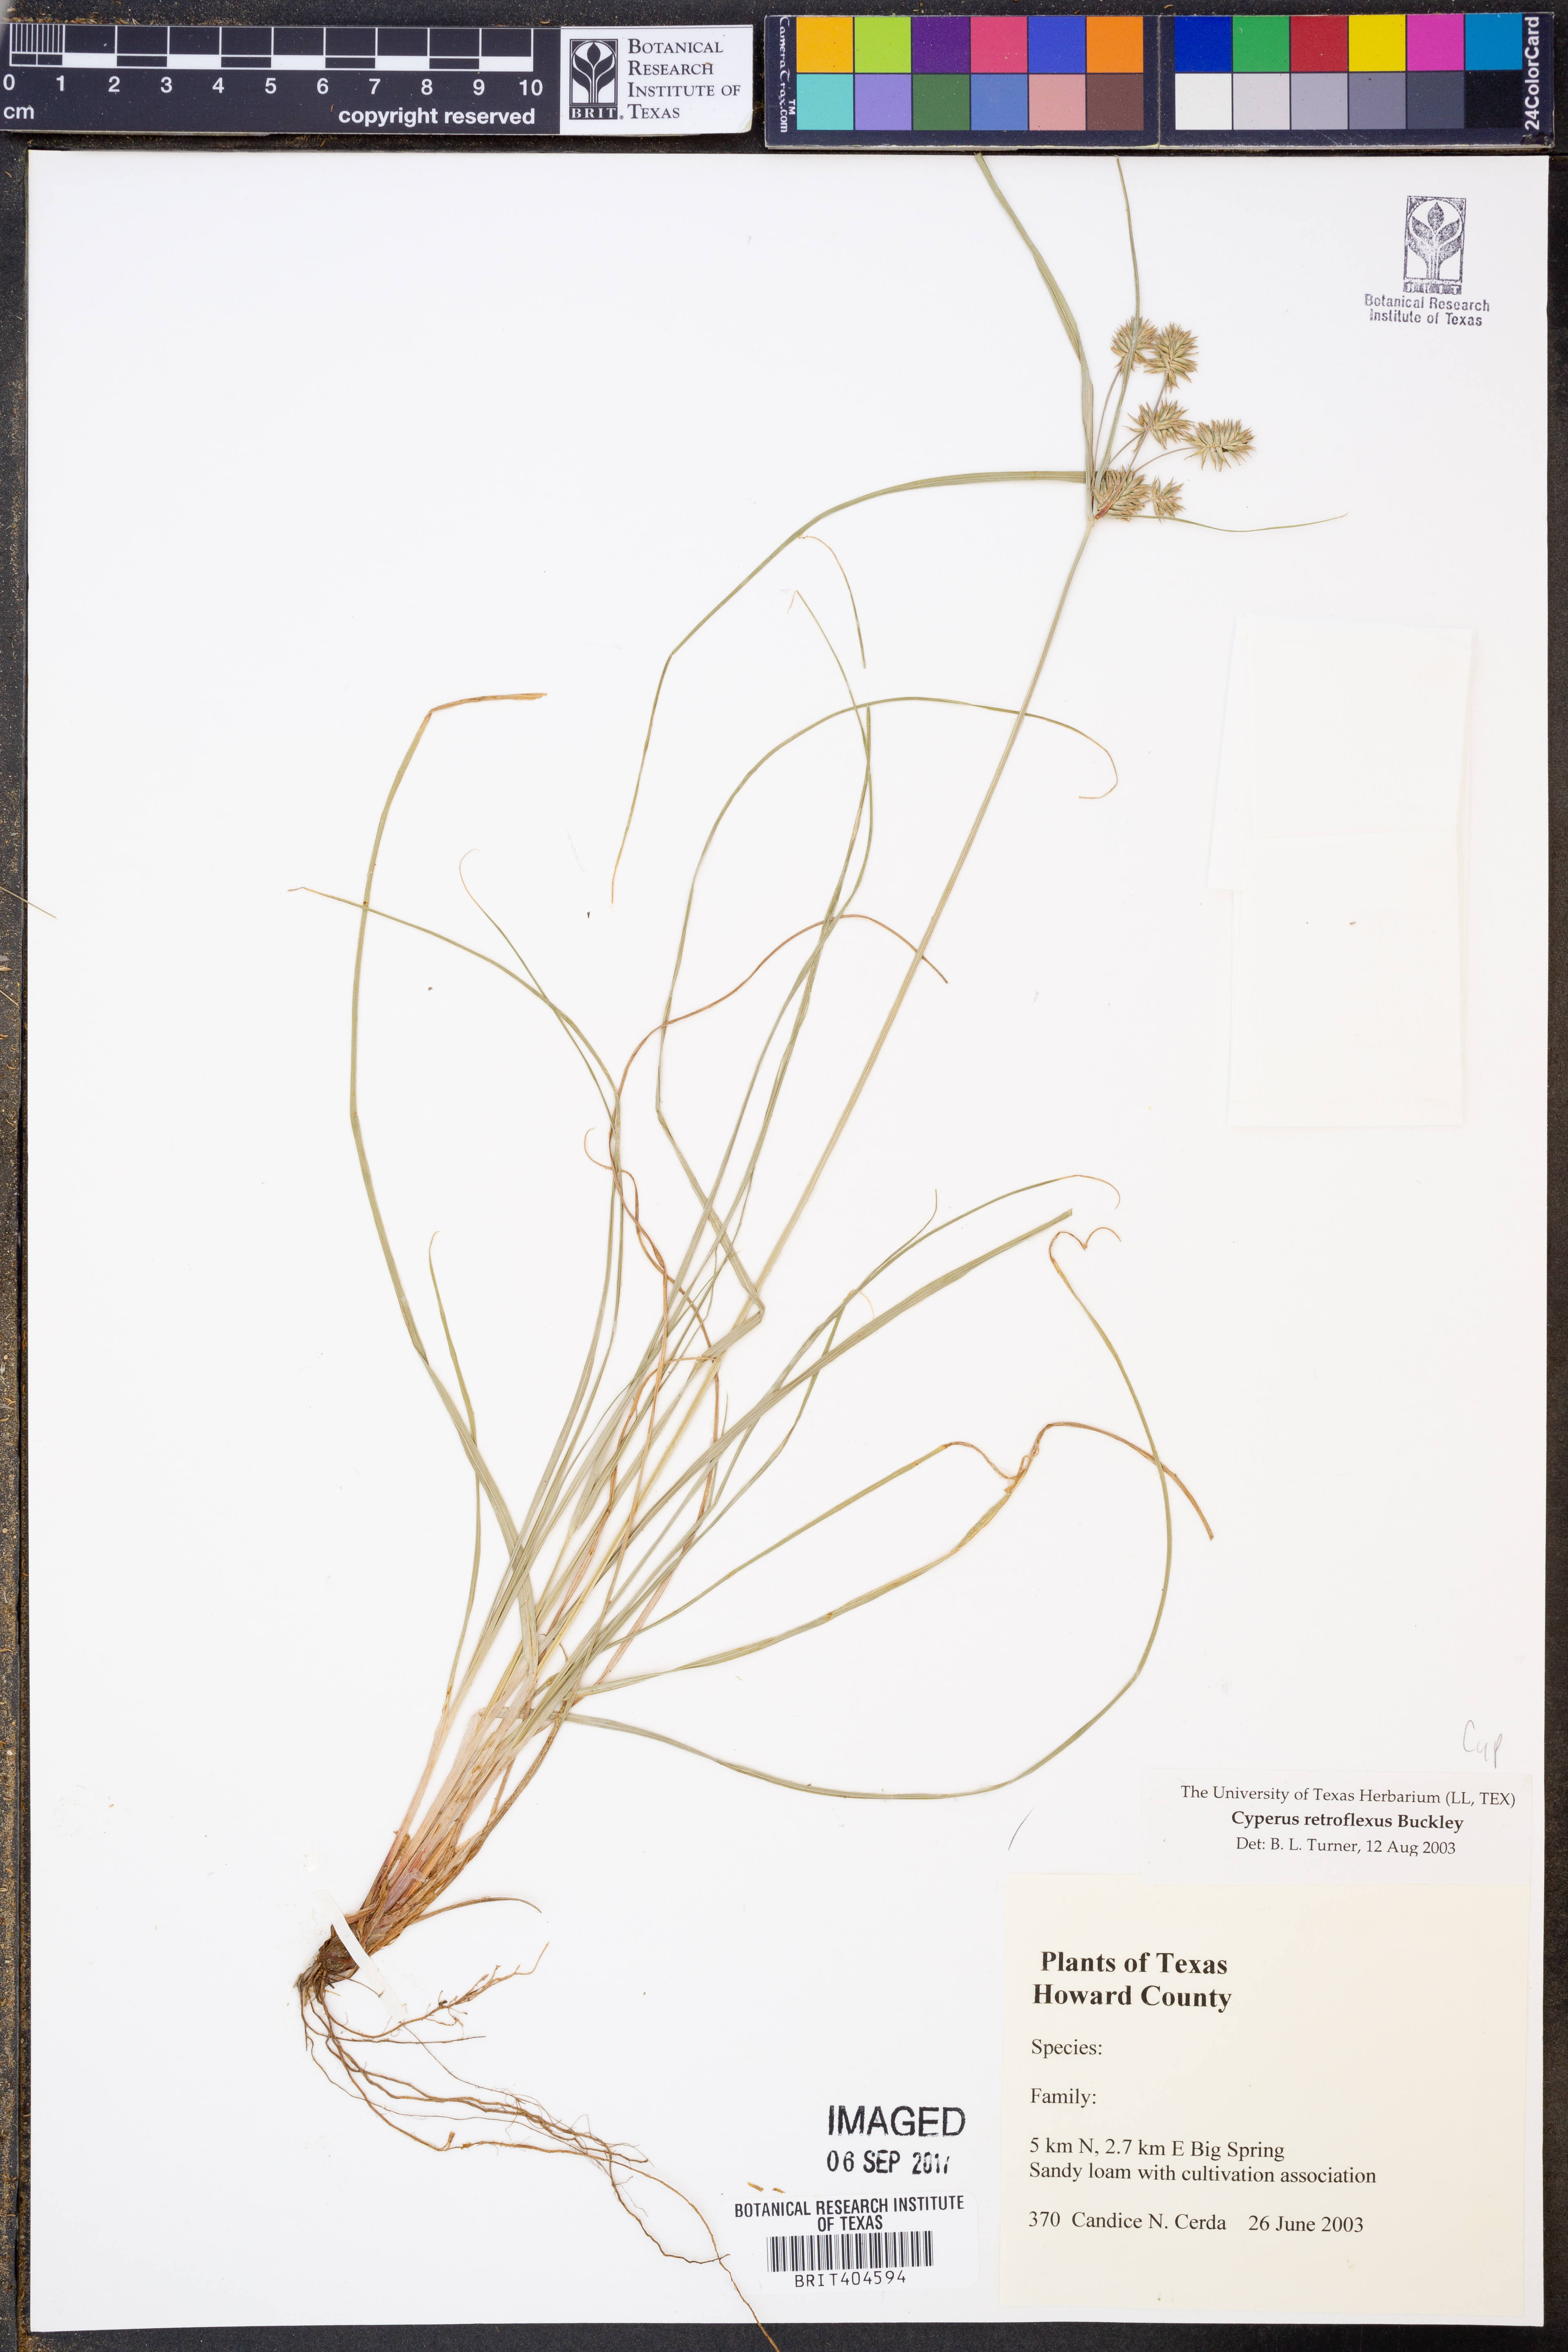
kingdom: Plantae
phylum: Tracheophyta
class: Liliopsida
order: Poales
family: Cyperaceae
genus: Cyperus
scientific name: Cyperus retroflexus
